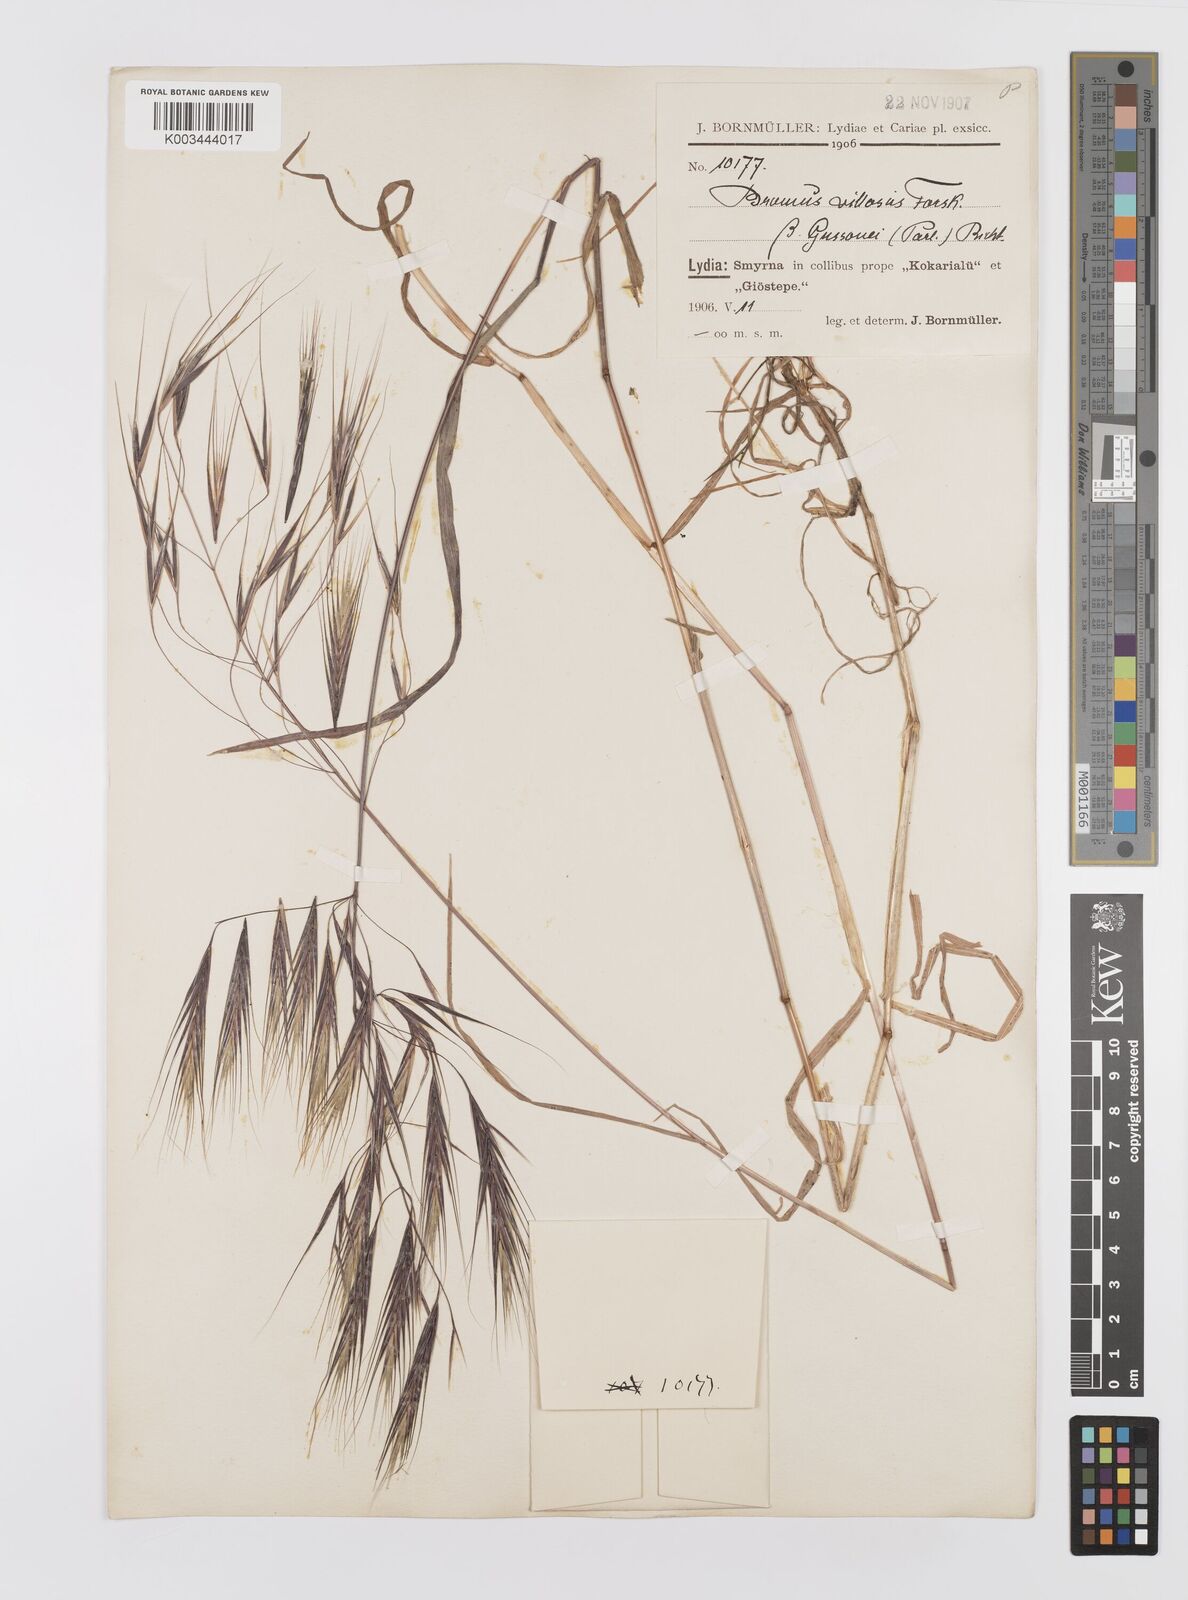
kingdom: Plantae
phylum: Tracheophyta
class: Liliopsida
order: Poales
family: Poaceae
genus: Bromus
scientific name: Bromus sterilis
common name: Poverty brome
